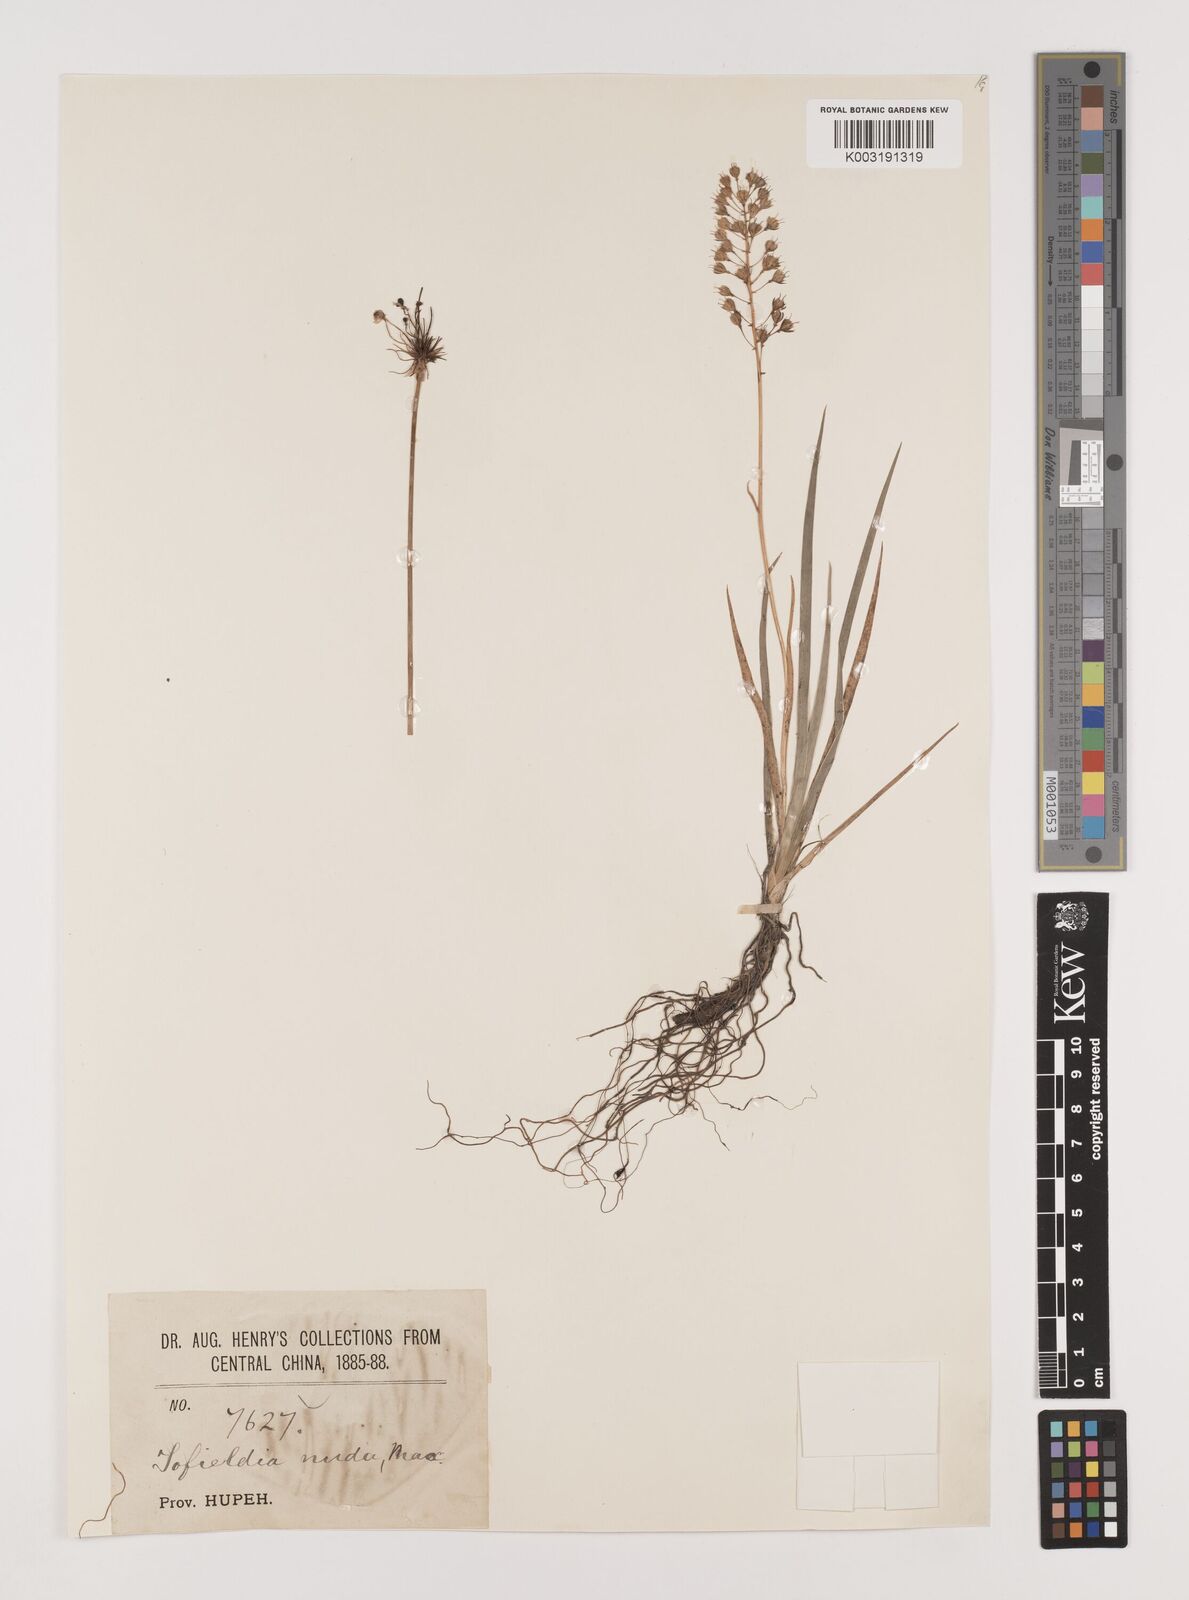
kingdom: Plantae
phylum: Tracheophyta
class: Liliopsida
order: Alismatales
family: Tofieldiaceae
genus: Tofieldia
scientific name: Tofieldia nuda
